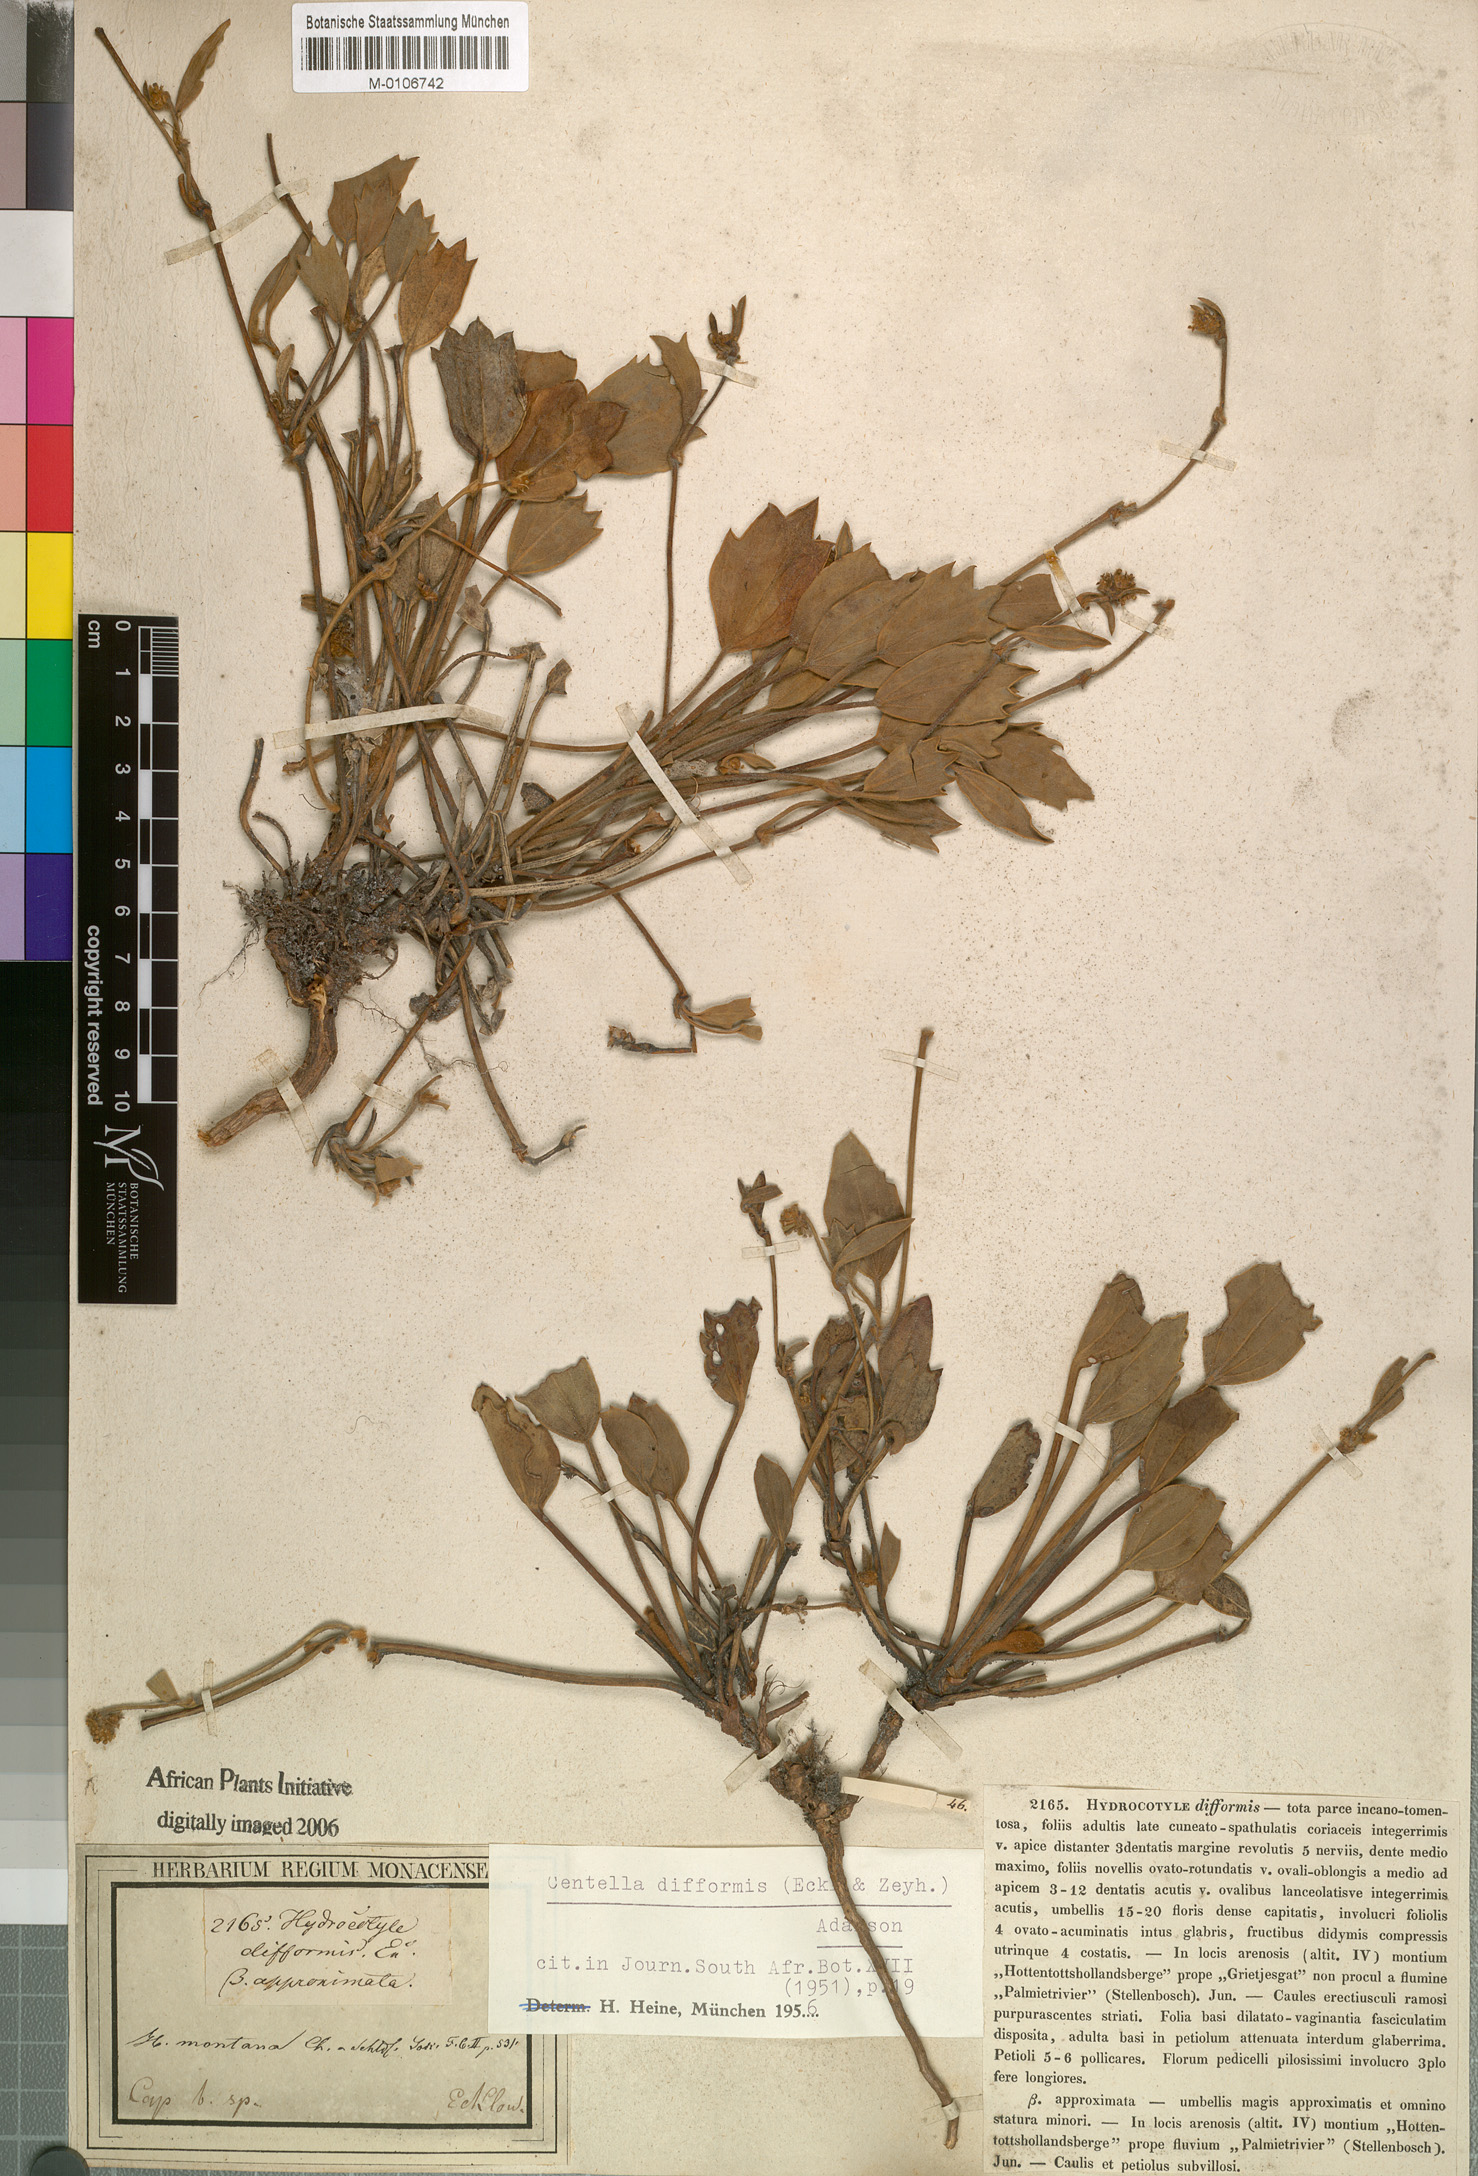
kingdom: Plantae
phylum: Tracheophyta
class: Magnoliopsida
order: Apiales
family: Apiaceae
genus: Centella
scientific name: Centella difformis
